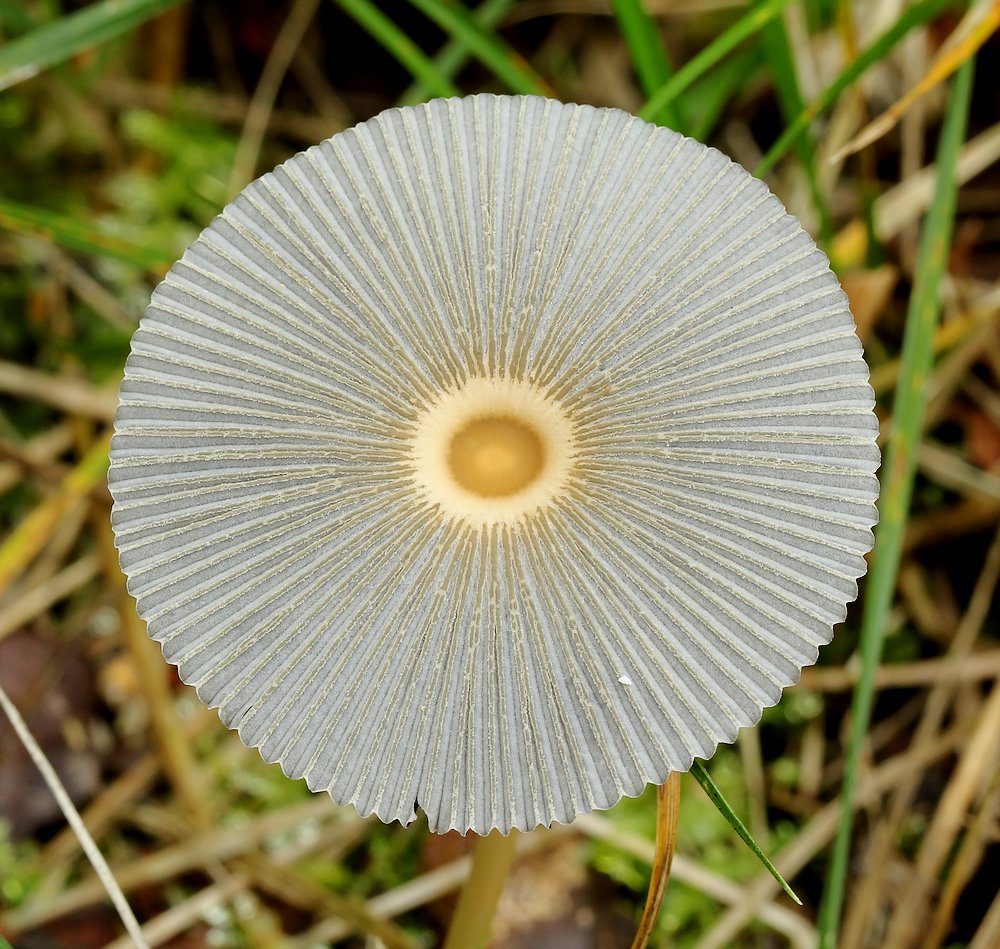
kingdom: Fungi
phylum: Basidiomycota
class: Agaricomycetes
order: Agaricales
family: Psathyrellaceae
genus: Parasola
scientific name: Parasola
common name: hjulhat
